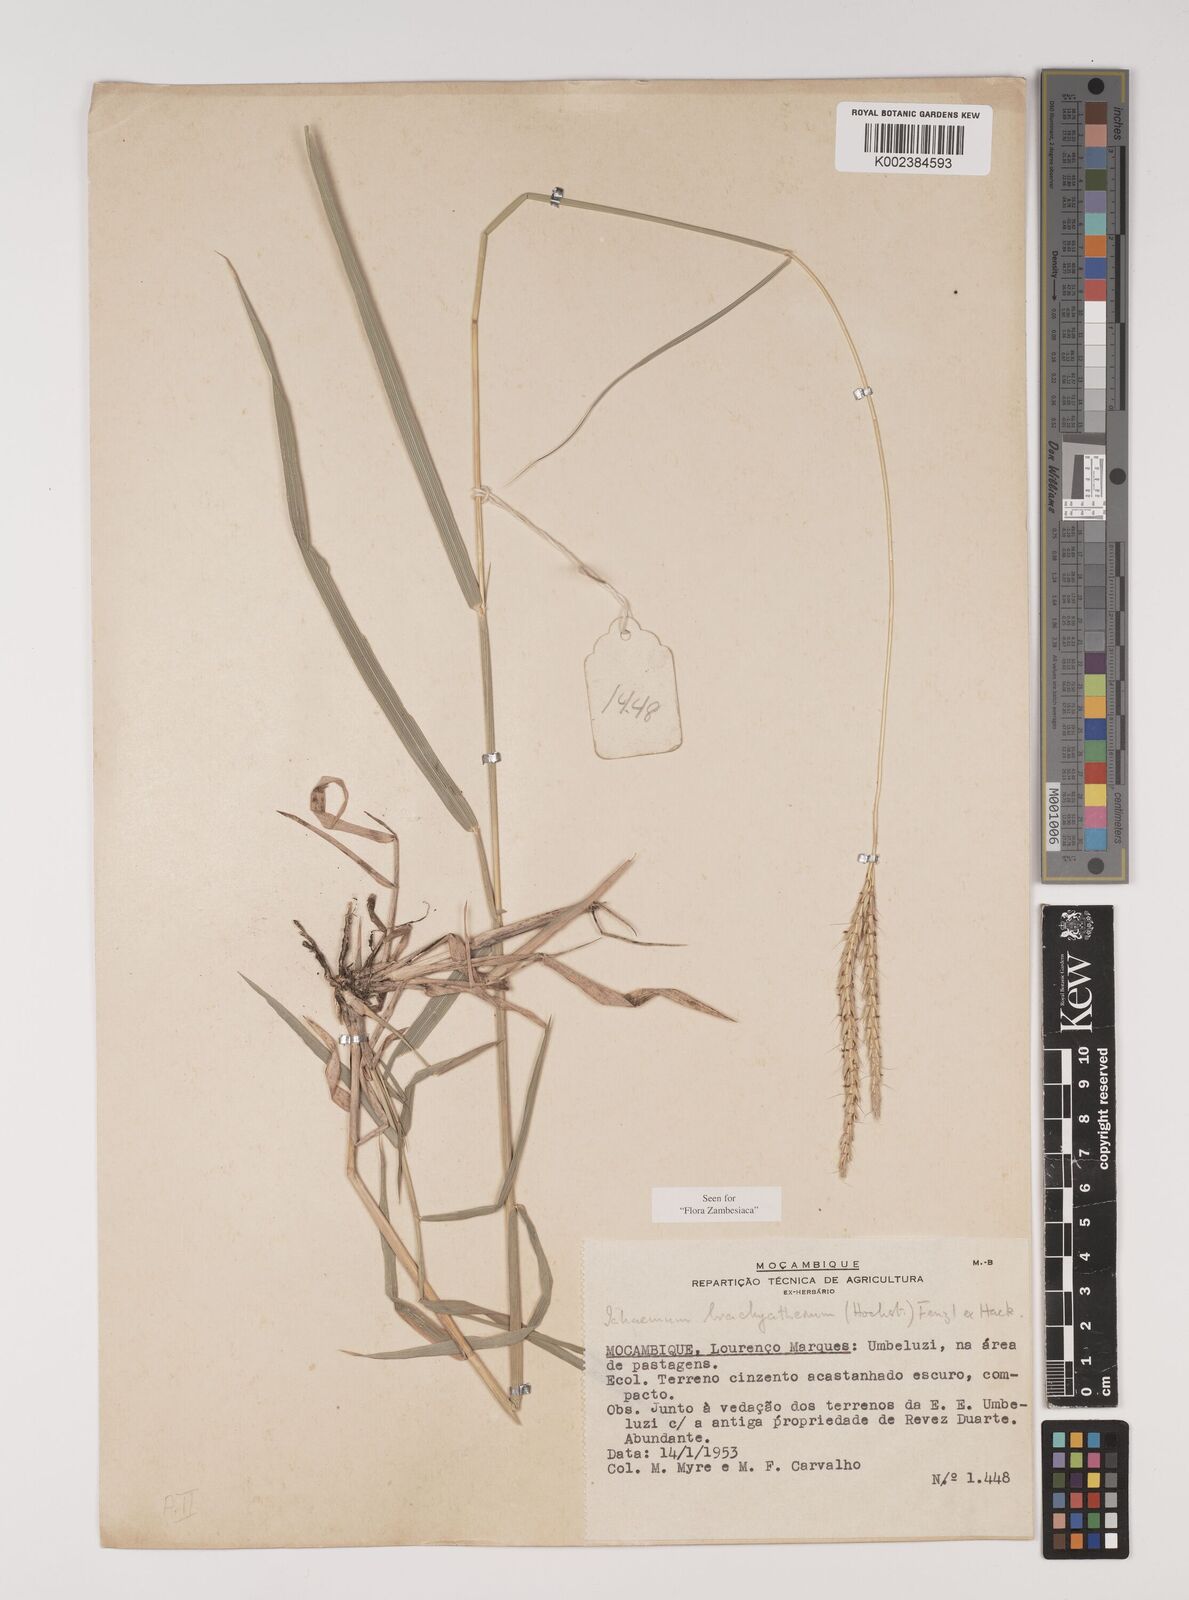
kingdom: Plantae
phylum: Tracheophyta
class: Liliopsida
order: Poales
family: Poaceae
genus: Ischaemum
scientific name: Ischaemum afrum
